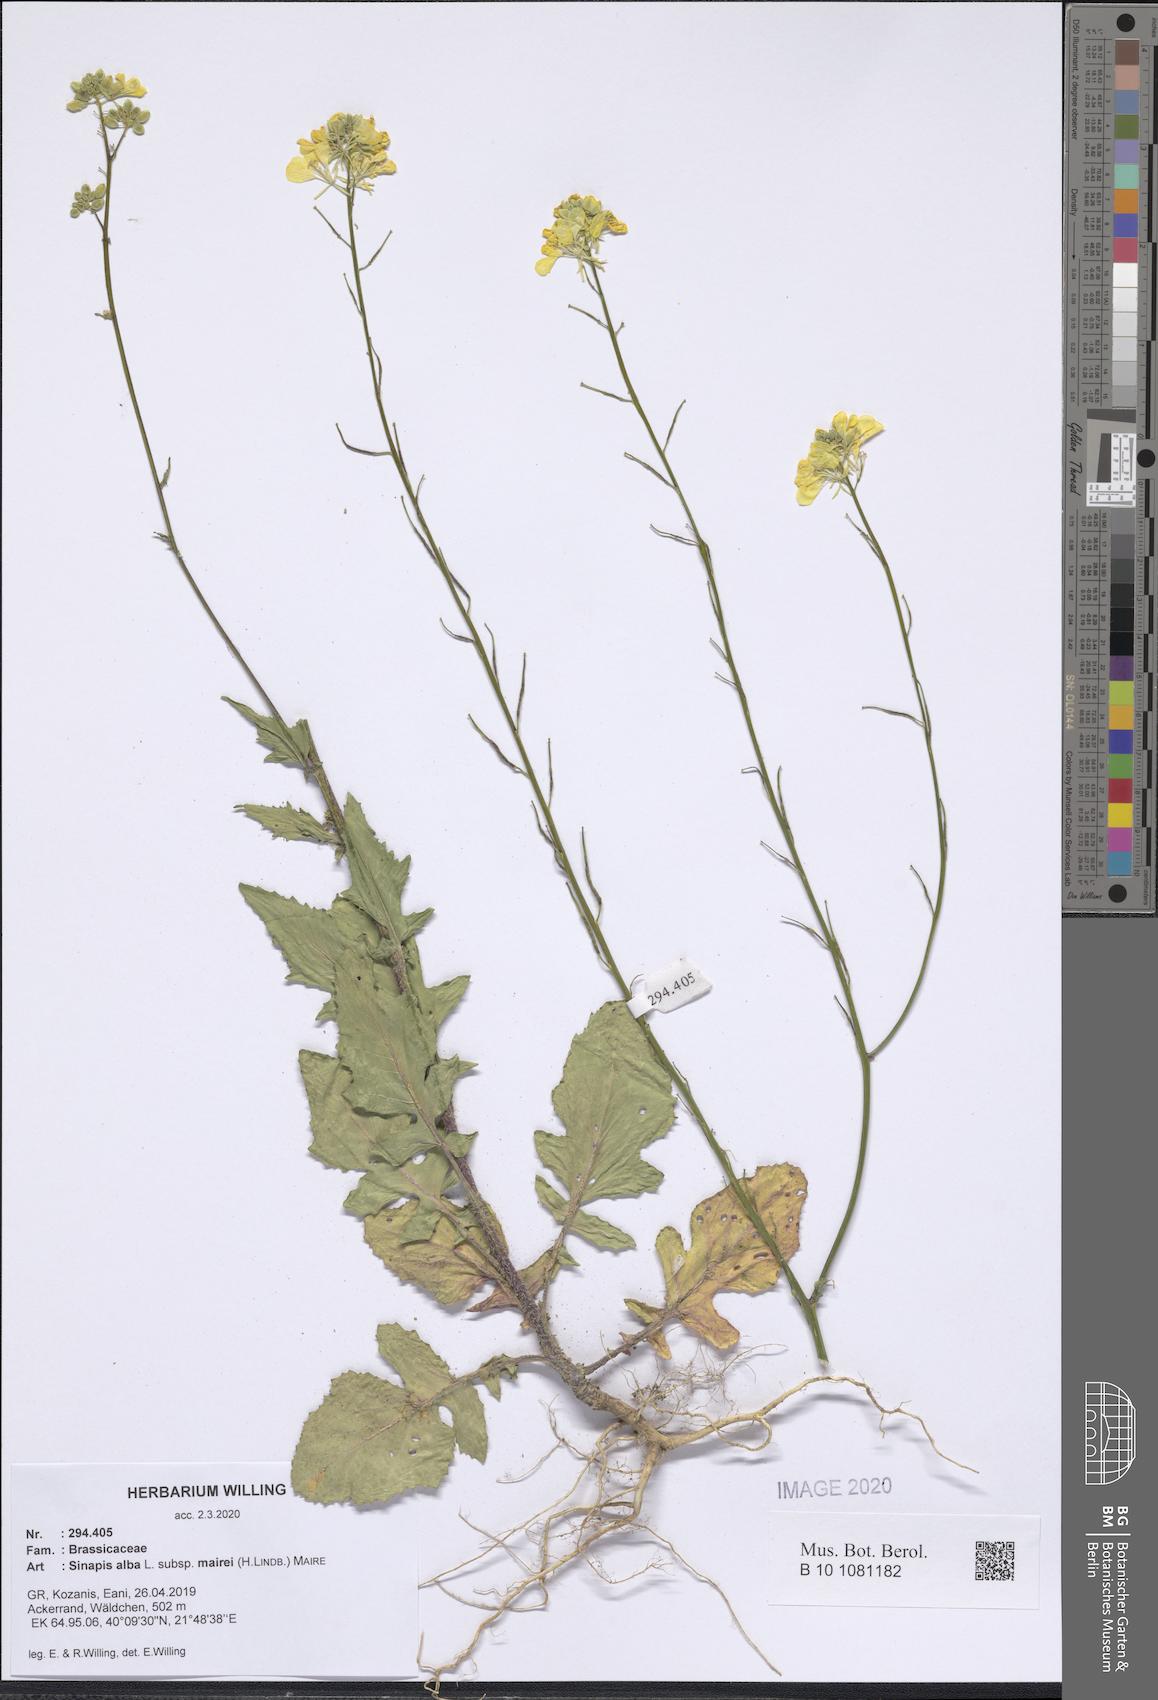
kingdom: Plantae
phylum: Tracheophyta
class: Magnoliopsida
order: Brassicales
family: Brassicaceae
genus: Sinapis
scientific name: Sinapis alba
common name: White mustard
